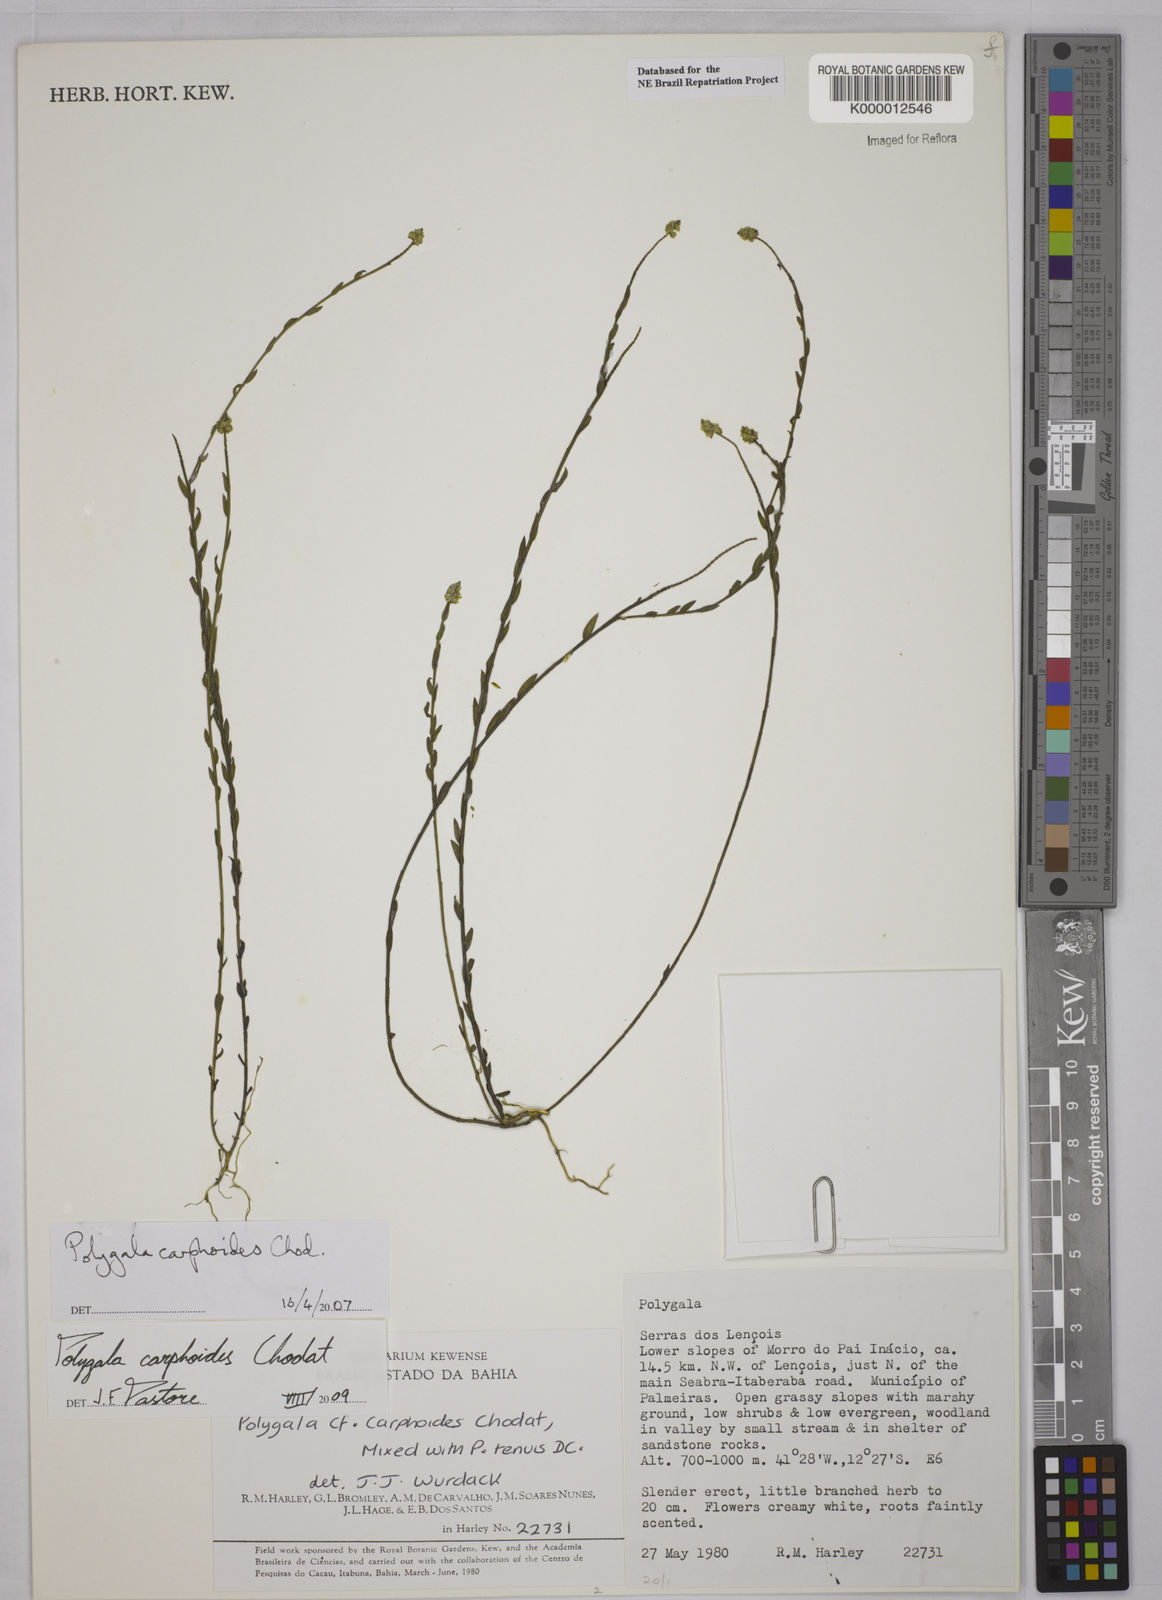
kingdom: Plantae
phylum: Tracheophyta
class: Magnoliopsida
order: Fabales
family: Polygalaceae
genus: Polygala
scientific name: Polygala carphoides
